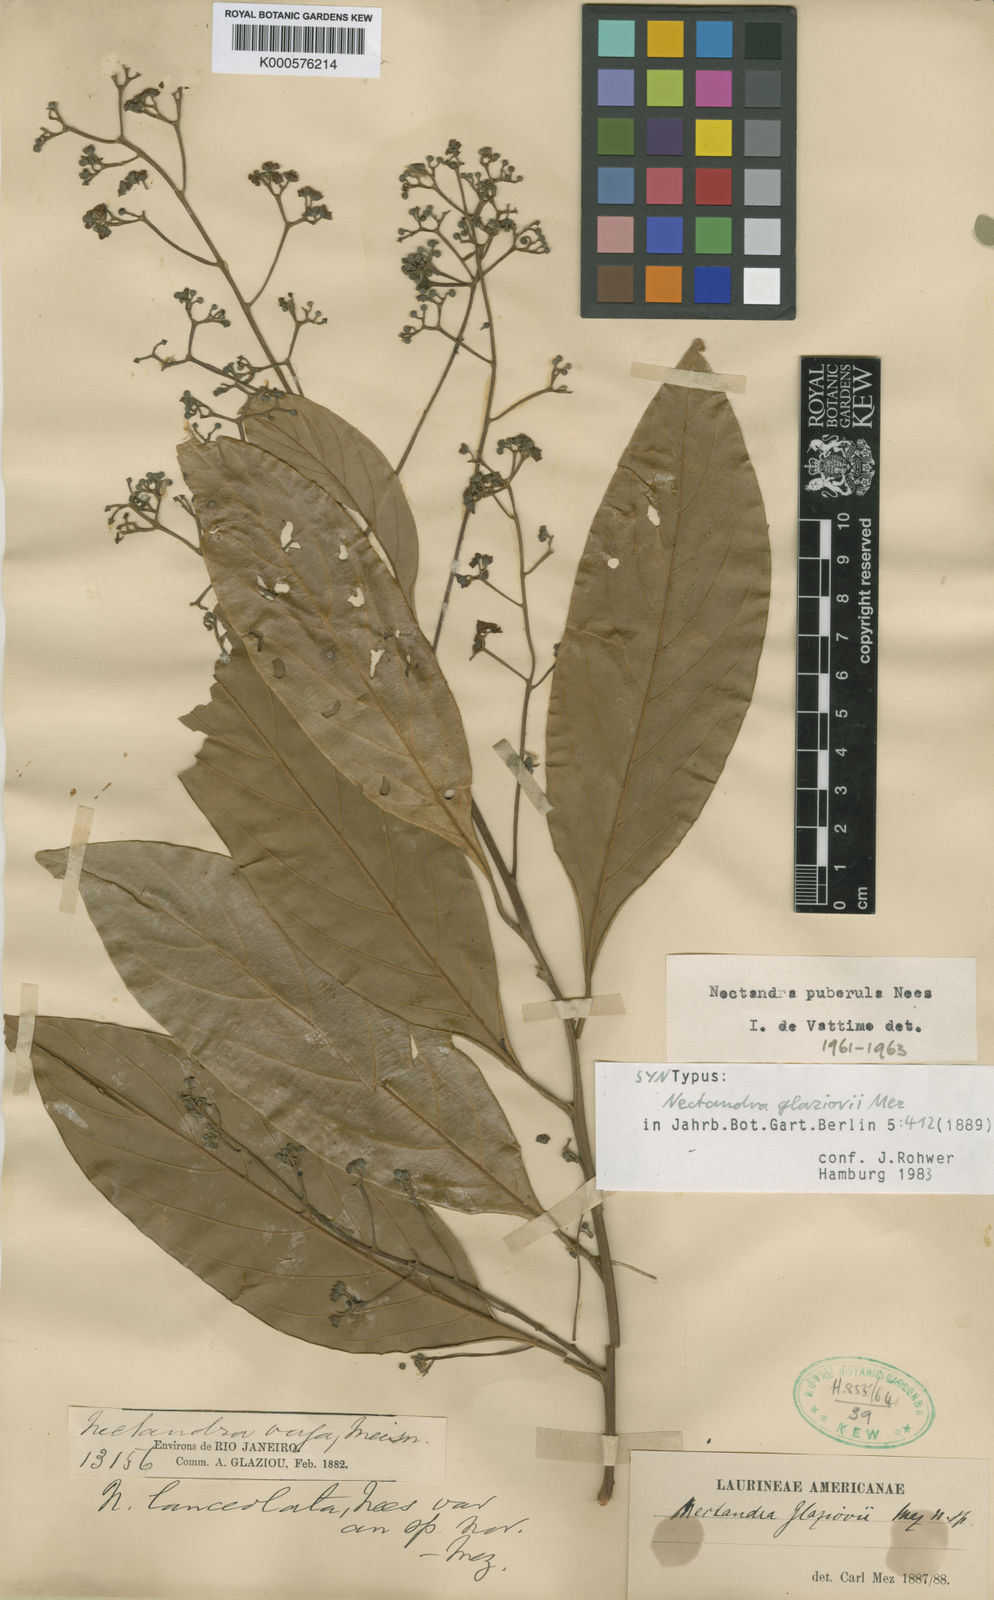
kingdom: Plantae
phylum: Tracheophyta
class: Magnoliopsida
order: Laurales
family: Lauraceae
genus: Nectandra
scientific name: Nectandra puberula
